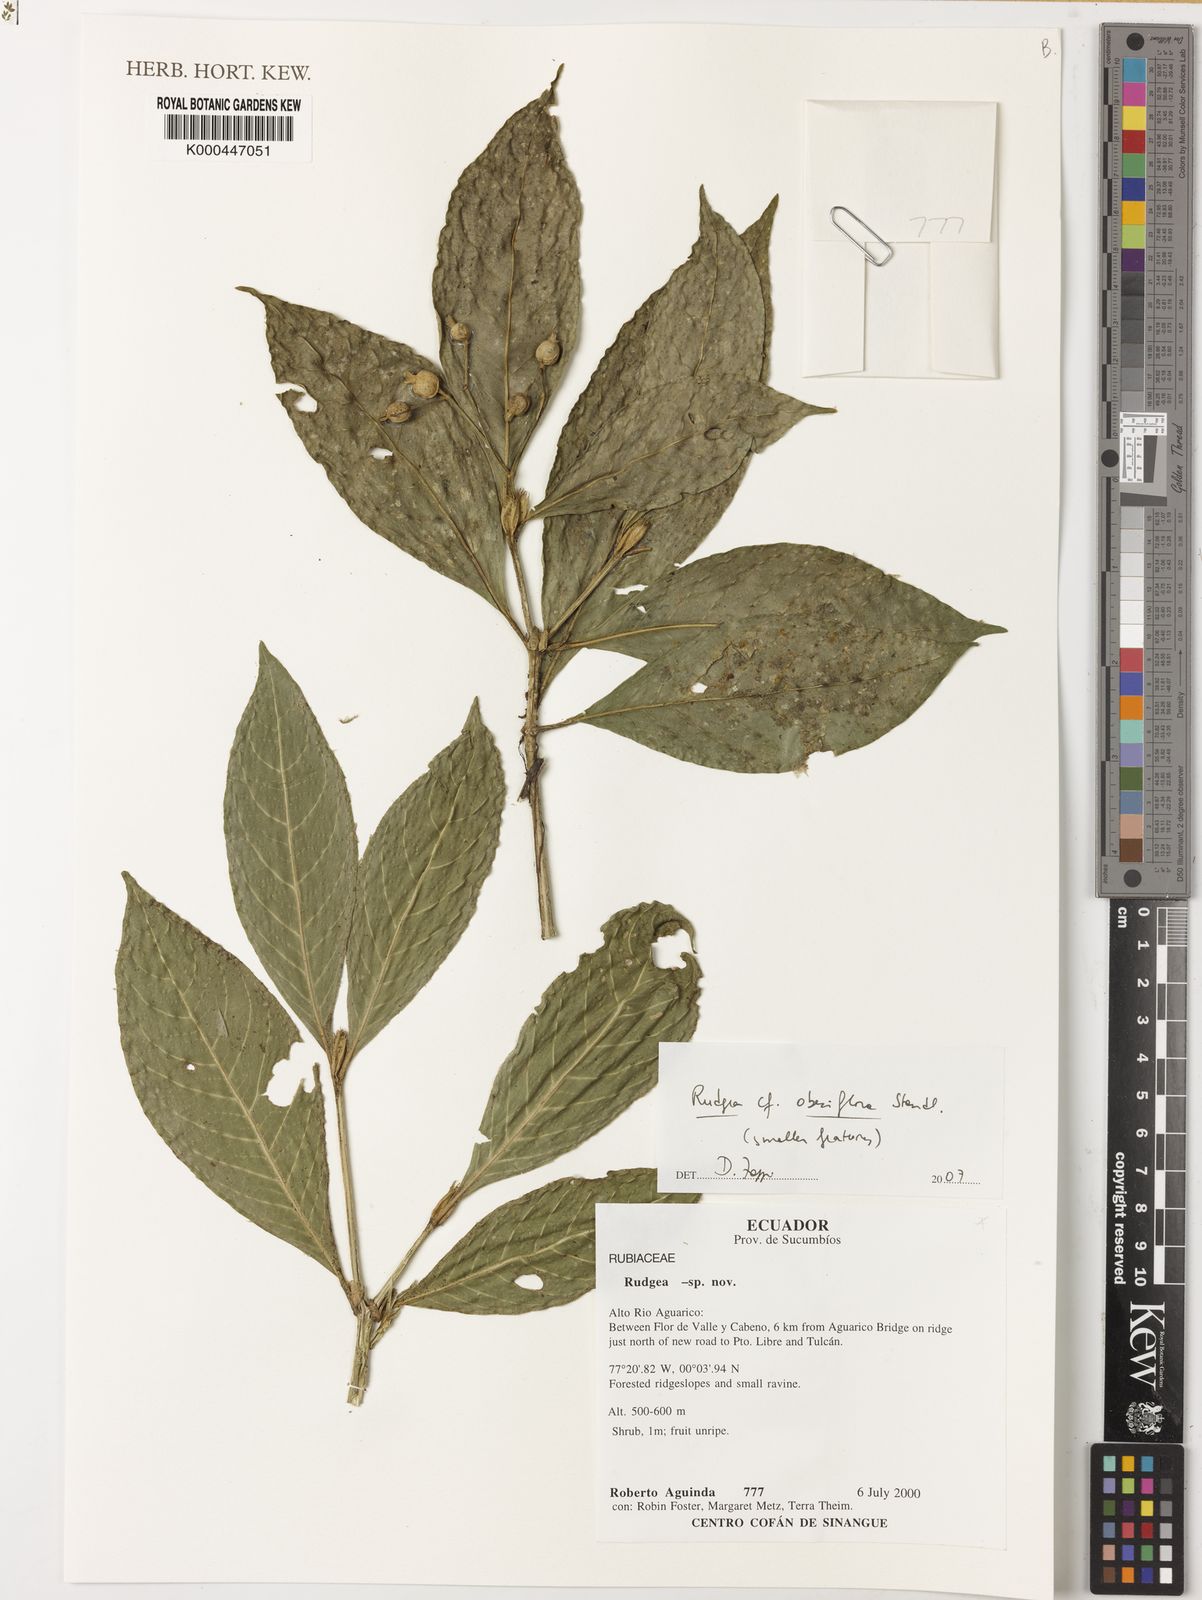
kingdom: Plantae
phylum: Tracheophyta
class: Magnoliopsida
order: Gentianales
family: Rubiaceae
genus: Rudgea
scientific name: Rudgea obesiflora
